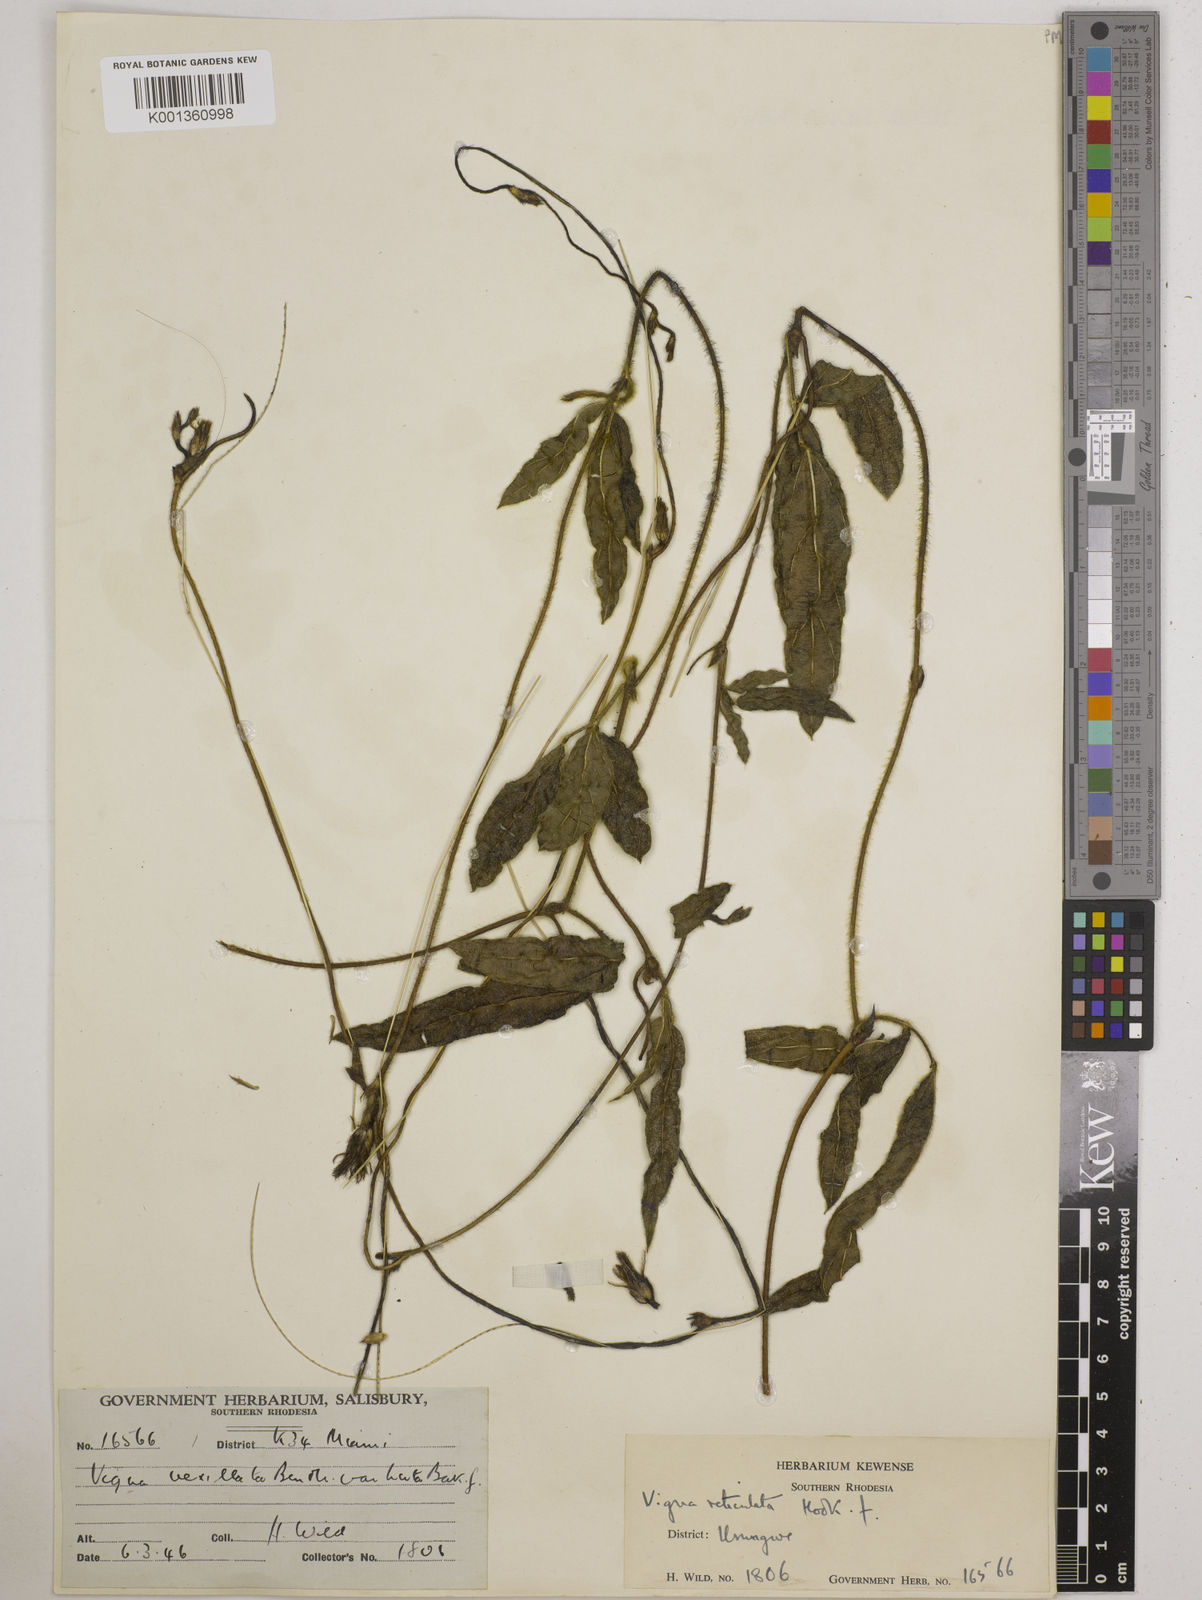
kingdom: Plantae
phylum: Tracheophyta
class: Magnoliopsida
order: Fabales
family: Fabaceae
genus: Vigna
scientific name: Vigna reticulata
